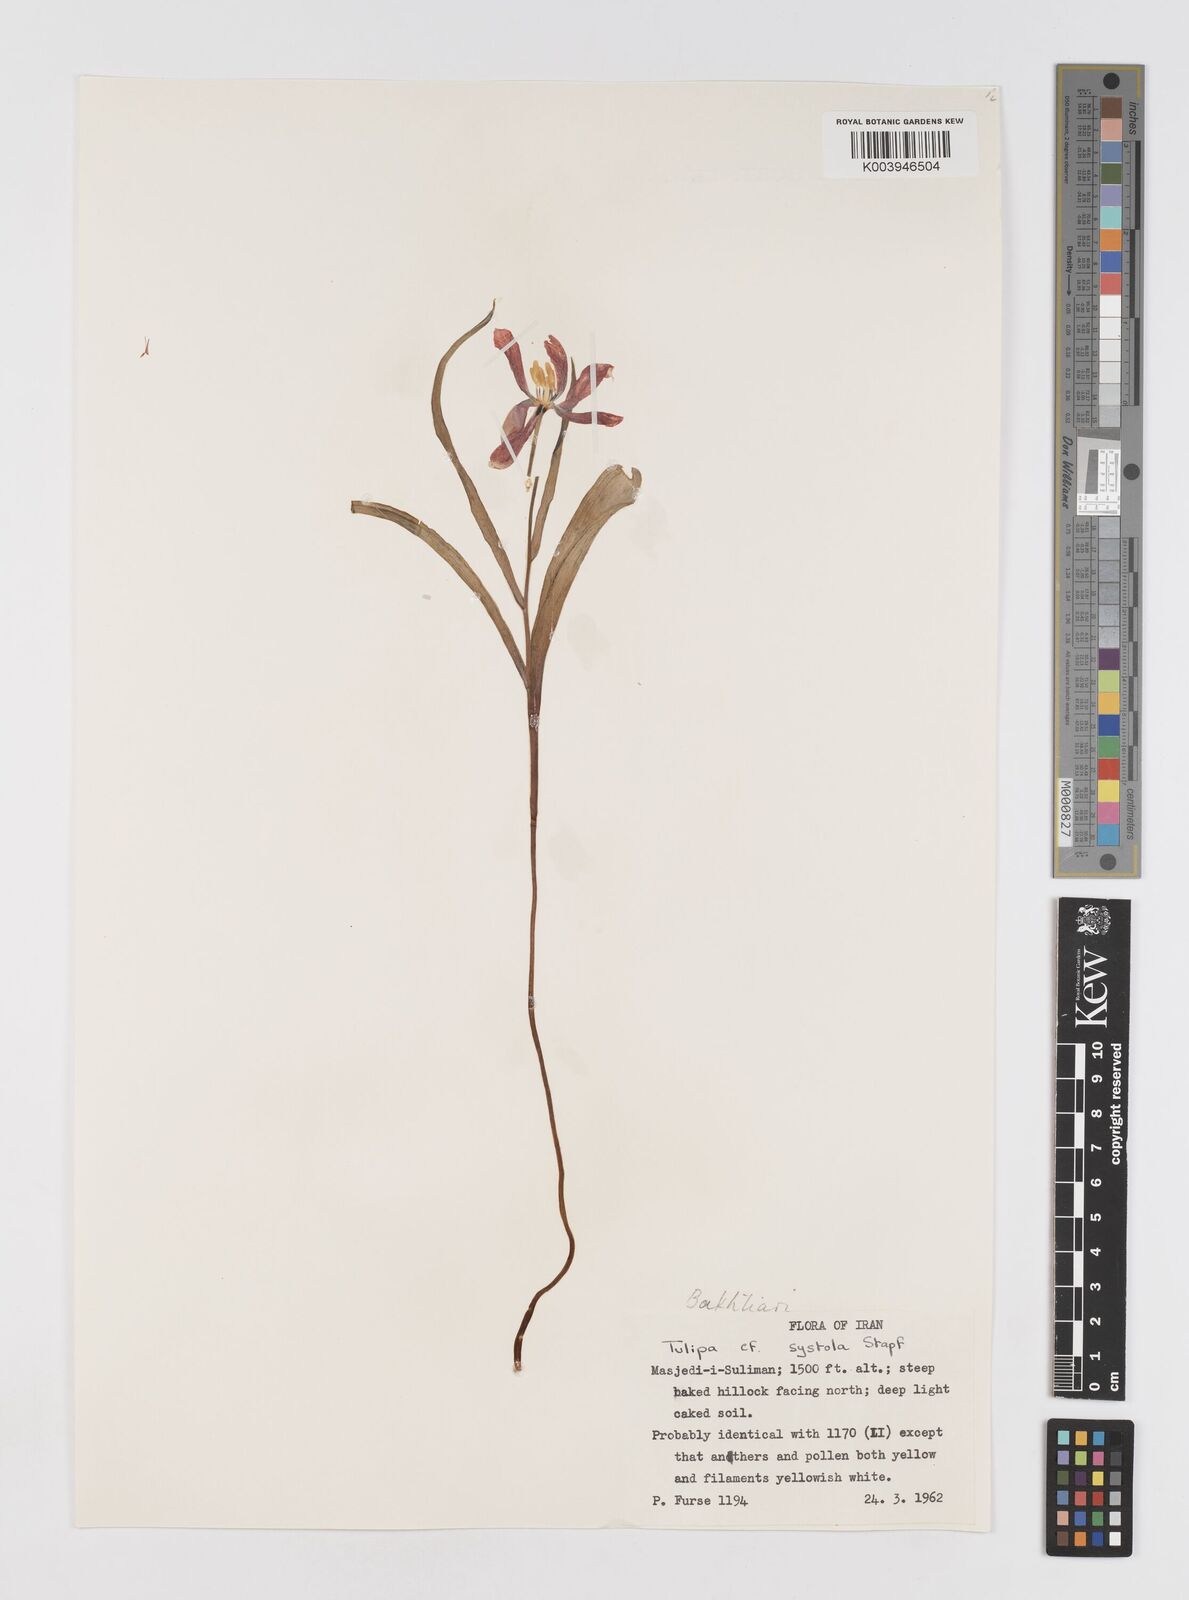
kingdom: Plantae
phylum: Tracheophyta
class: Liliopsida
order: Liliales
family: Liliaceae
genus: Tulipa
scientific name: Tulipa systola
